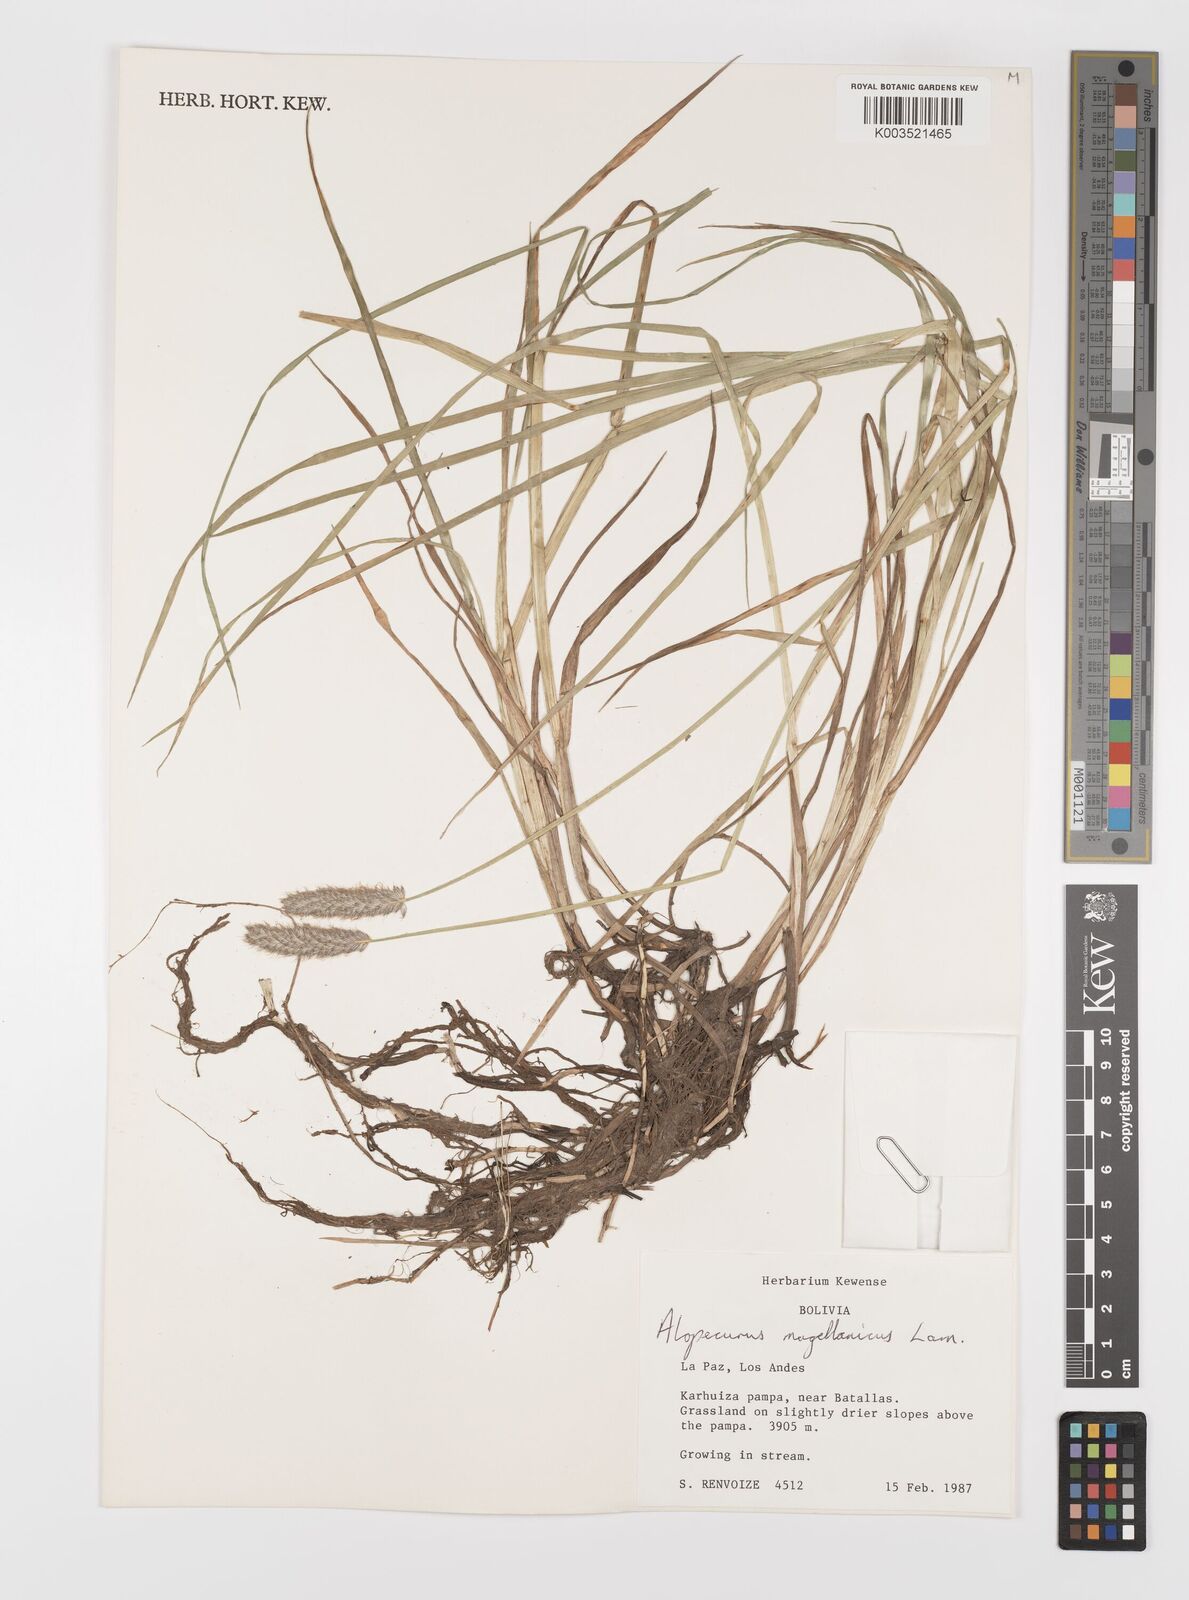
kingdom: Plantae
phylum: Tracheophyta
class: Liliopsida
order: Poales
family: Poaceae
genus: Alopecurus
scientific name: Alopecurus magellanicus
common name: Alpine foxtail
